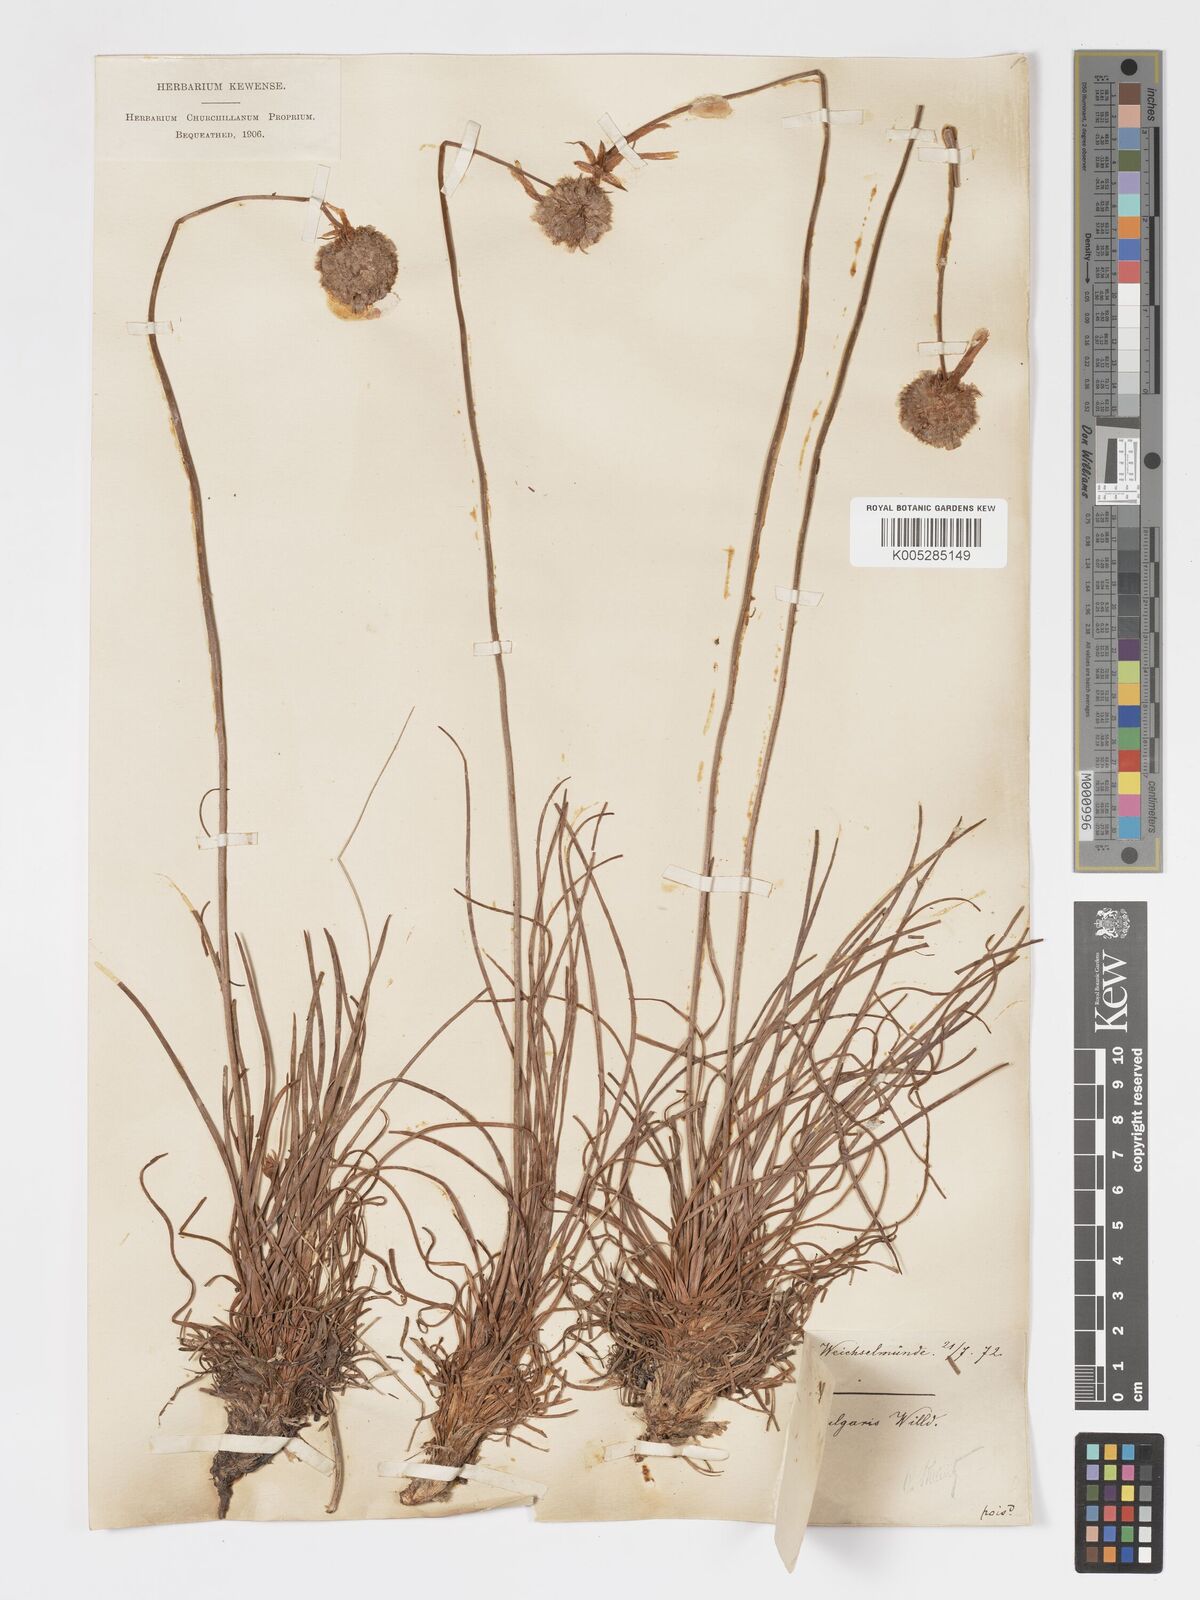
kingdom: Plantae
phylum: Tracheophyta
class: Magnoliopsida
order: Caryophyllales
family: Plumbaginaceae
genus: Armeria
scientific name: Armeria canescens
